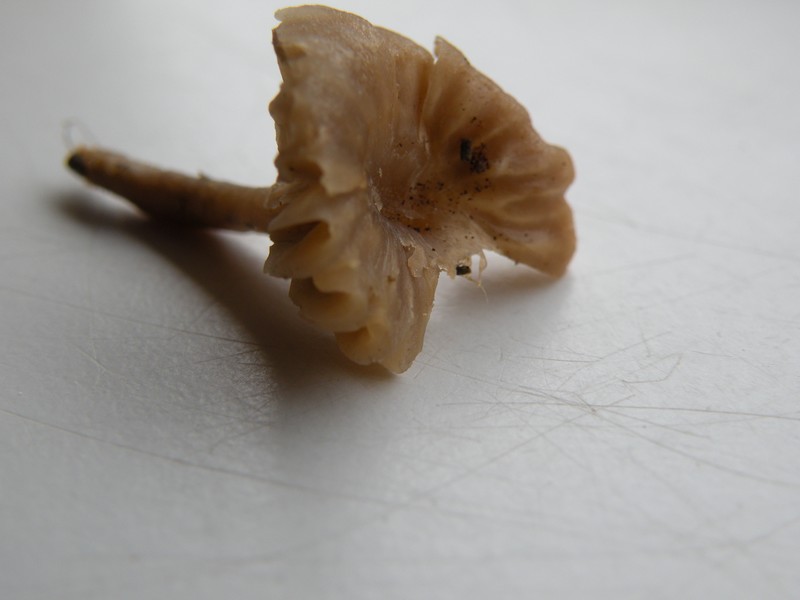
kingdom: Fungi
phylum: Basidiomycota
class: Agaricomycetes
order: Agaricales
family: Clavariaceae
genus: Hodophilus
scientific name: Hodophilus
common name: kratvokshat
